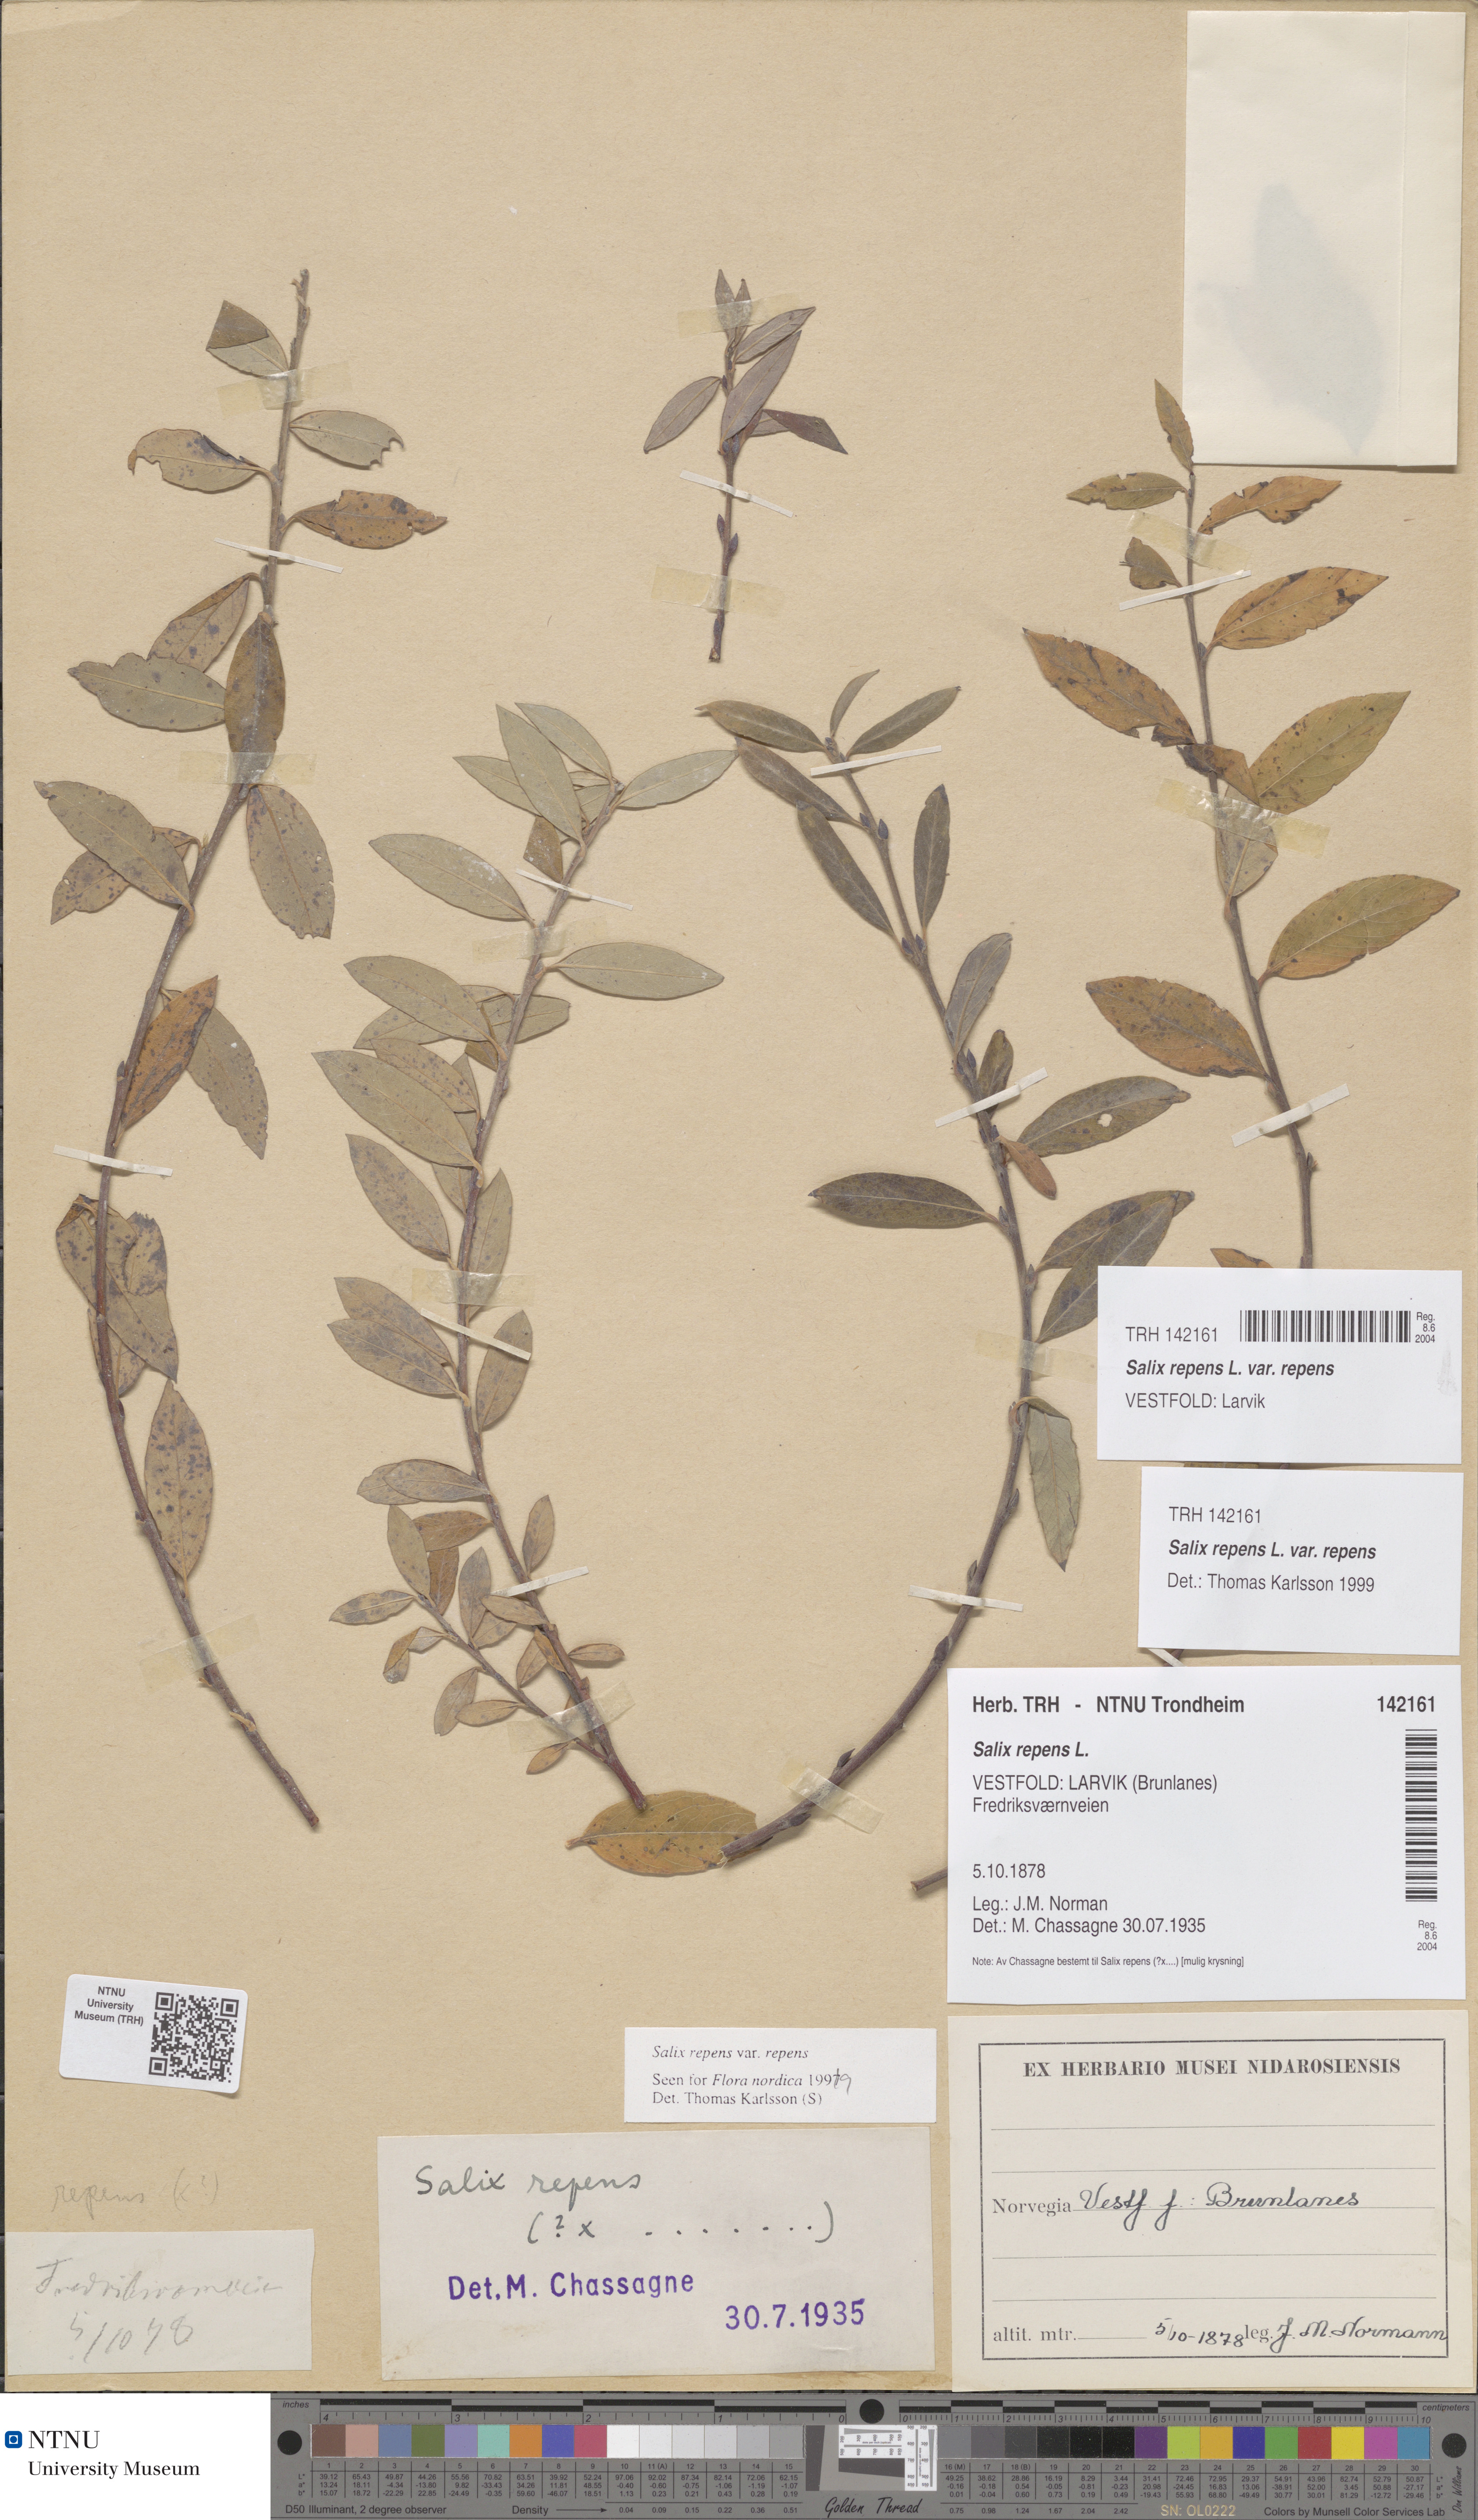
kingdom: Plantae
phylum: Tracheophyta
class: Magnoliopsida
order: Malpighiales
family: Salicaceae
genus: Salix
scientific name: Salix repens
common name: Creeping willow
